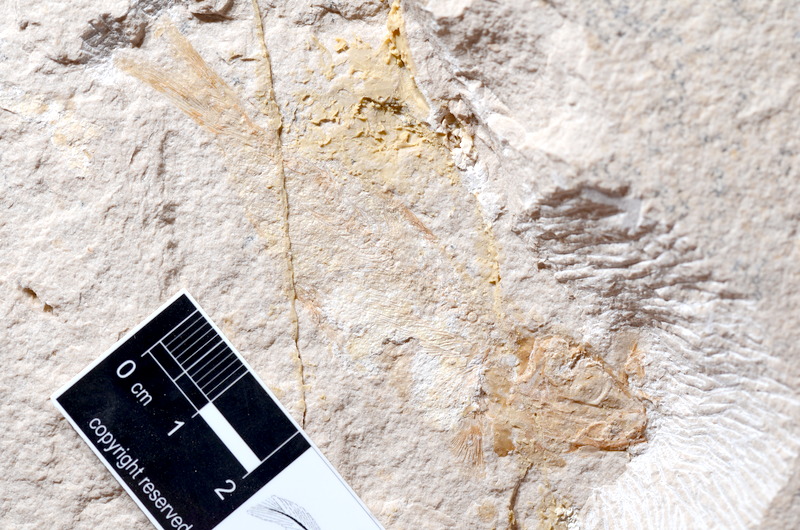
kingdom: Animalia
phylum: Chordata
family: Ascalaboidae
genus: Tharsis
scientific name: Tharsis dubius
